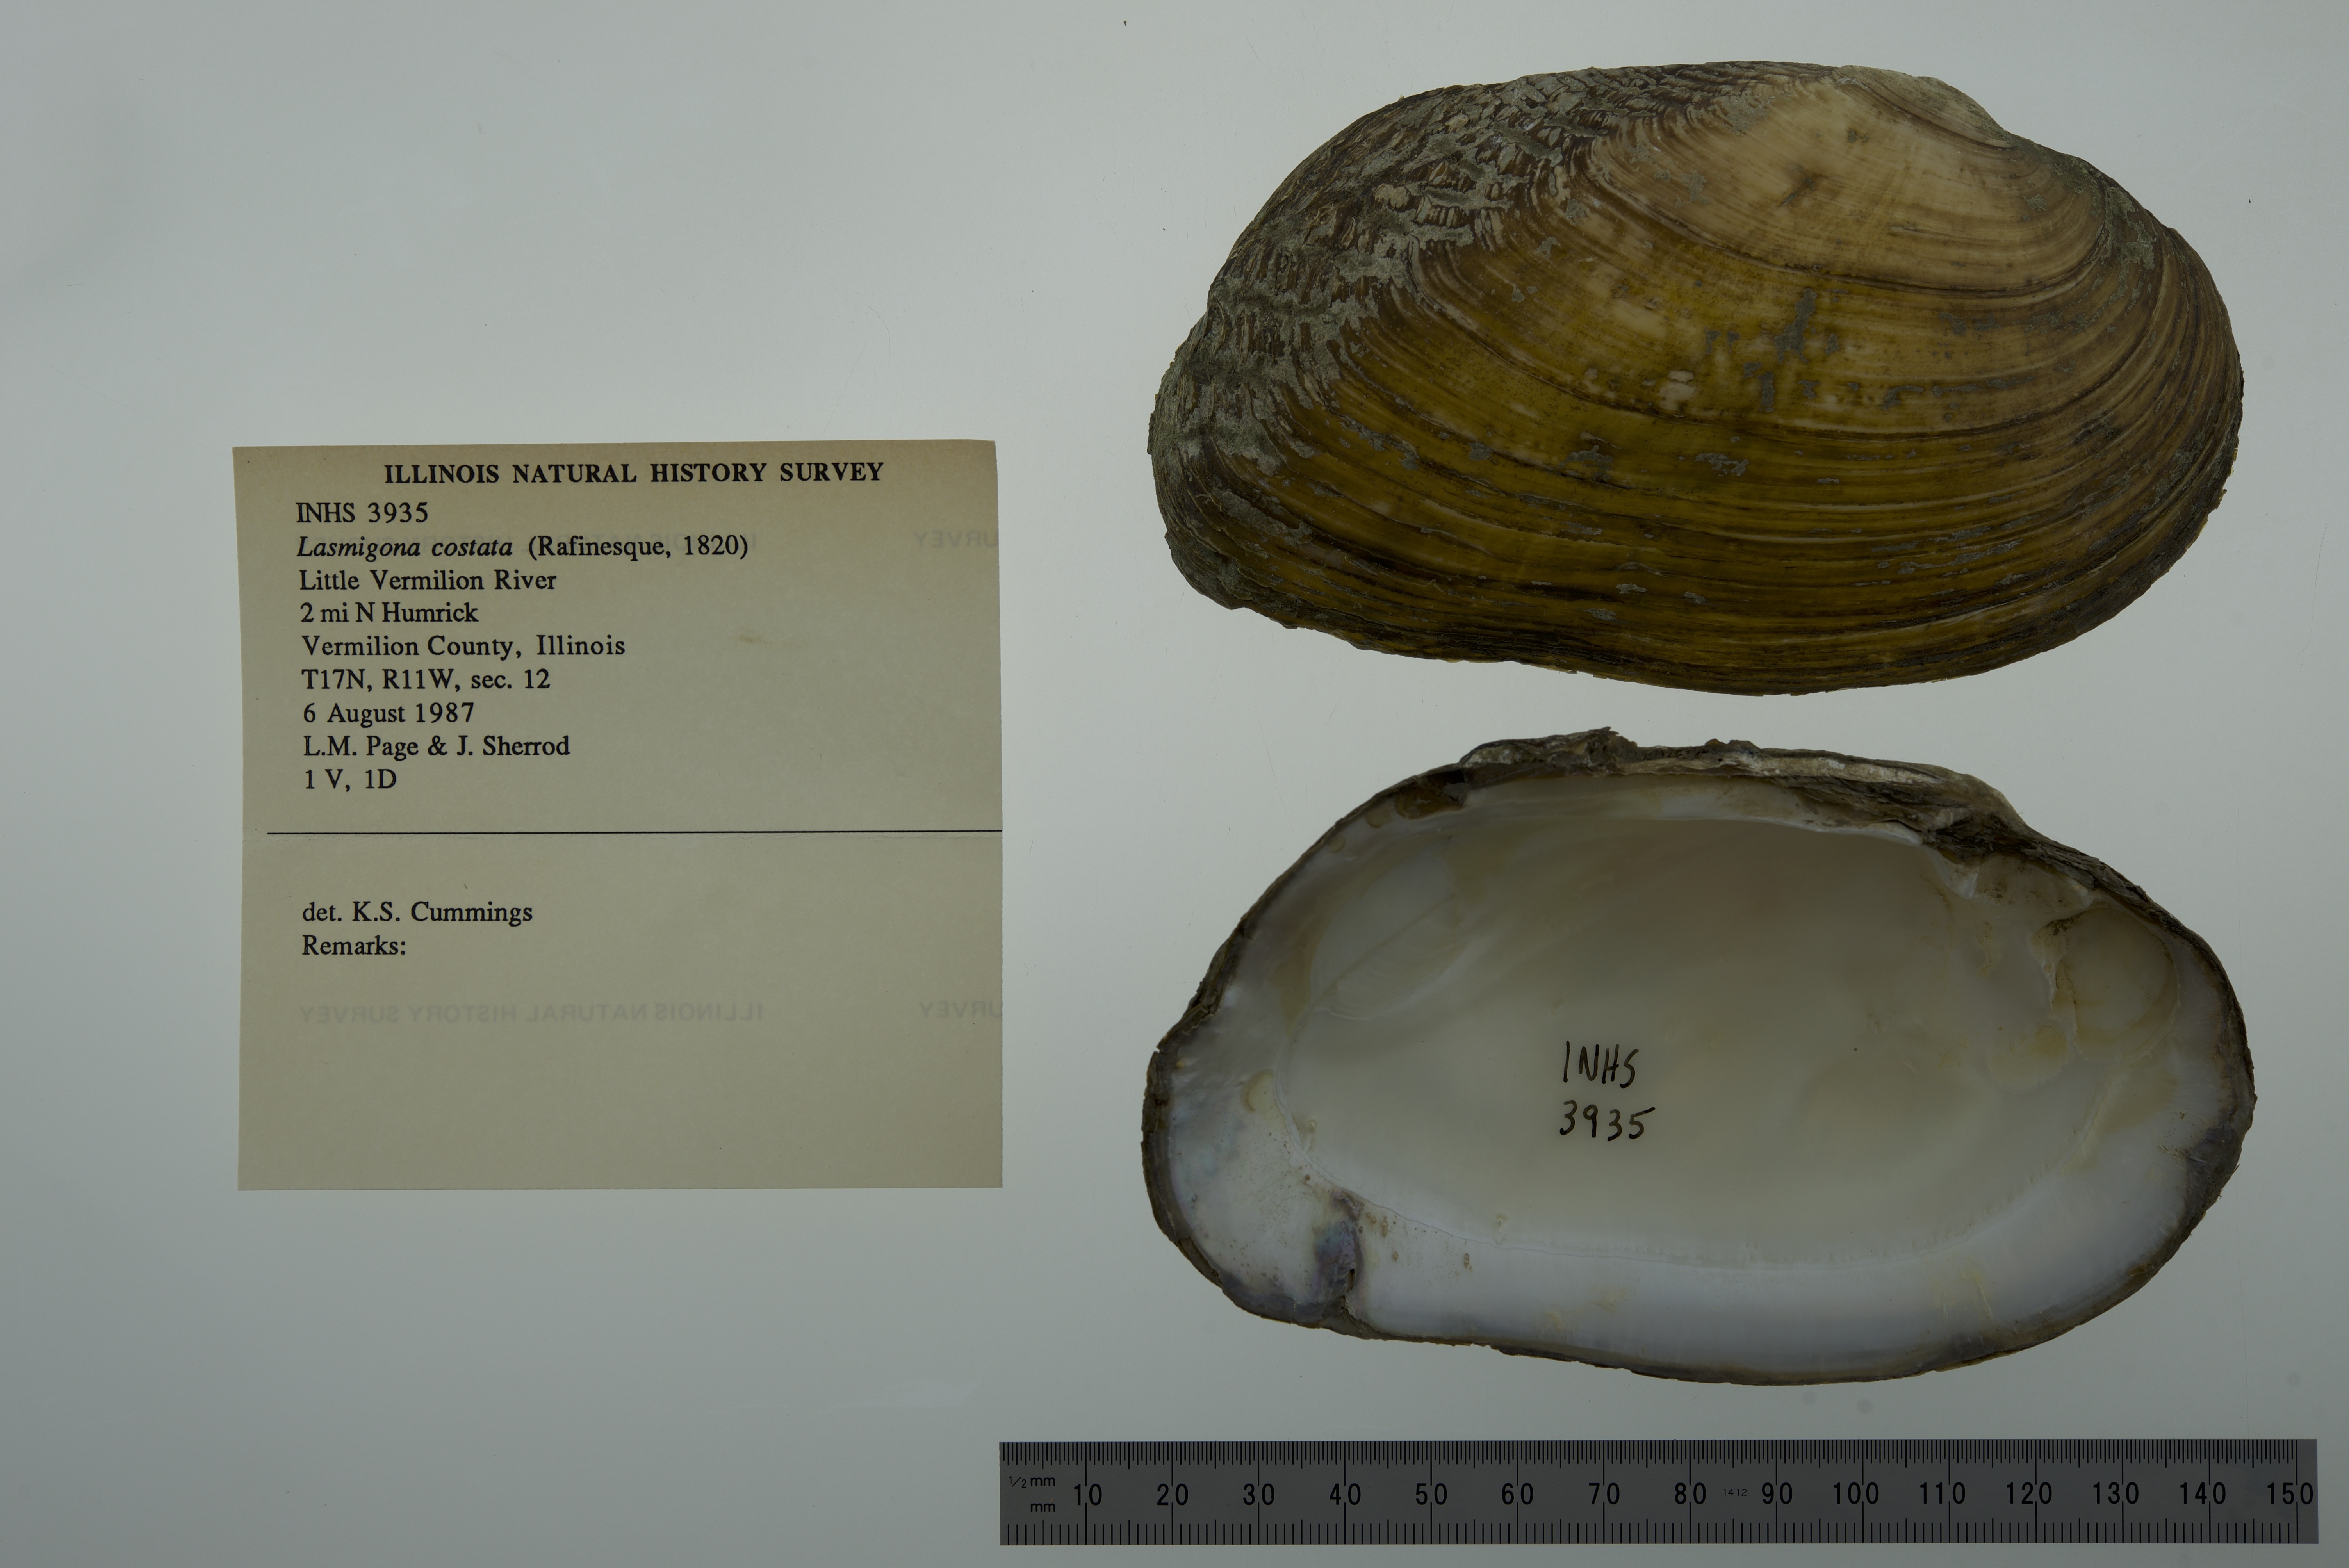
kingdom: Animalia
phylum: Mollusca
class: Bivalvia
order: Unionida
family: Unionidae
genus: Lasmigona
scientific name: Lasmigona costata
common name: Flutedshell
